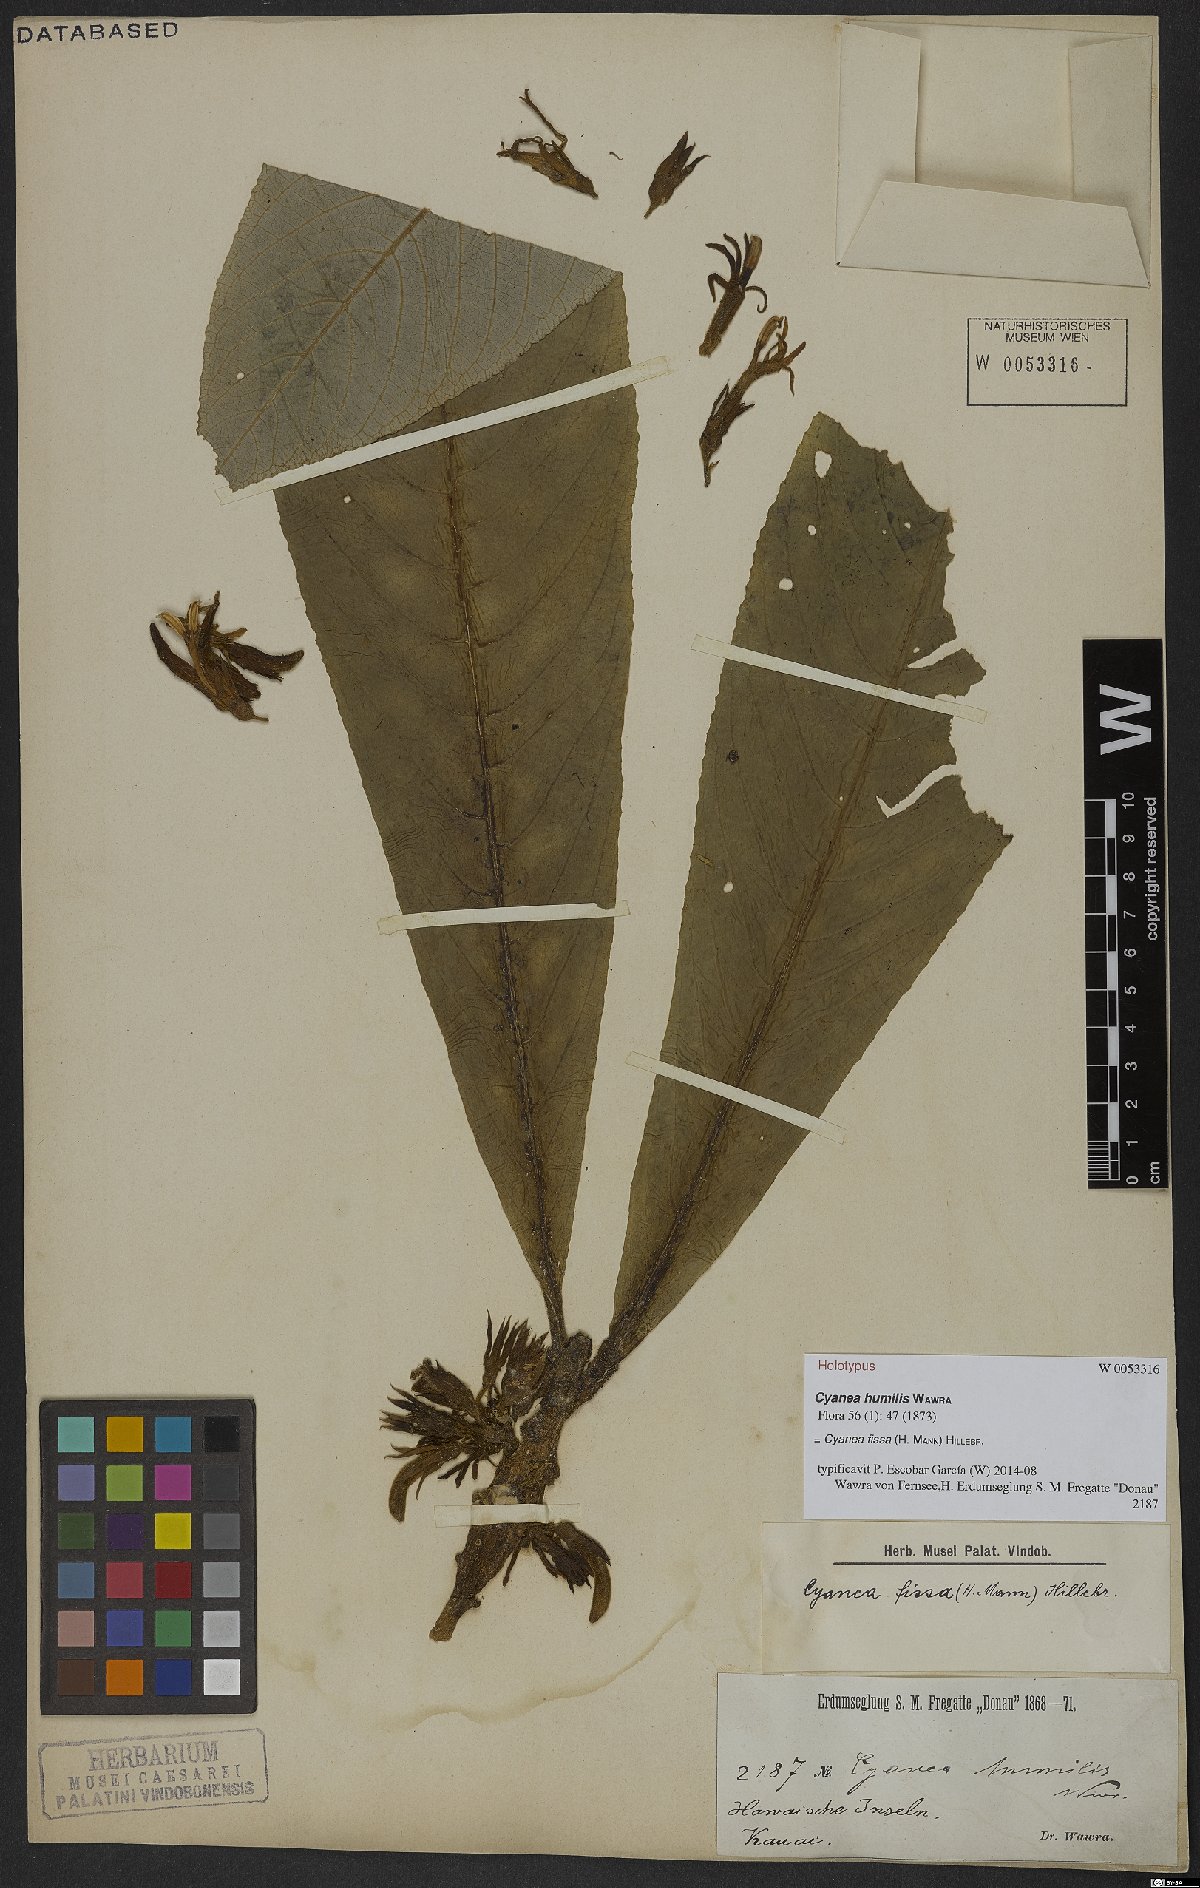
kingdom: Plantae
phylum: Tracheophyta
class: Magnoliopsida
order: Asterales
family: Campanulaceae
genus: Cyanea
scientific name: Cyanea fissa
